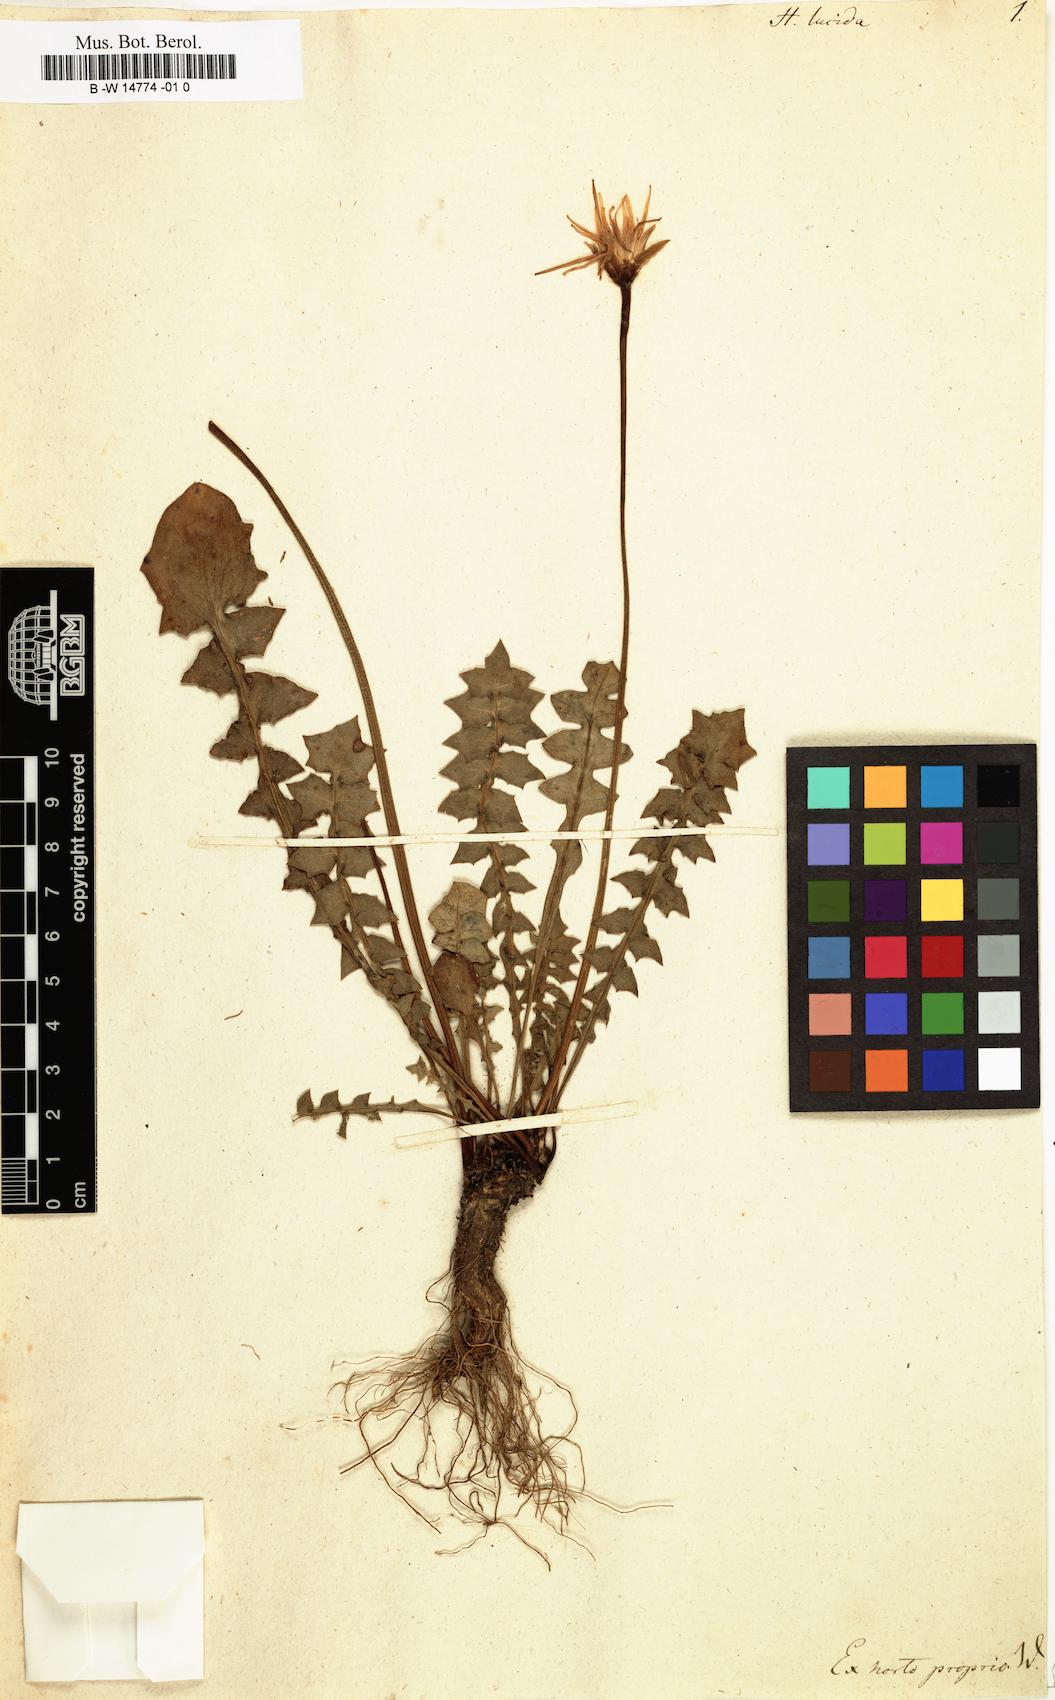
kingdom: Plantae
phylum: Tracheophyta
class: Magnoliopsida
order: Asterales
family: Asteraceae
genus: Hyoseris
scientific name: Hyoseris lucida
